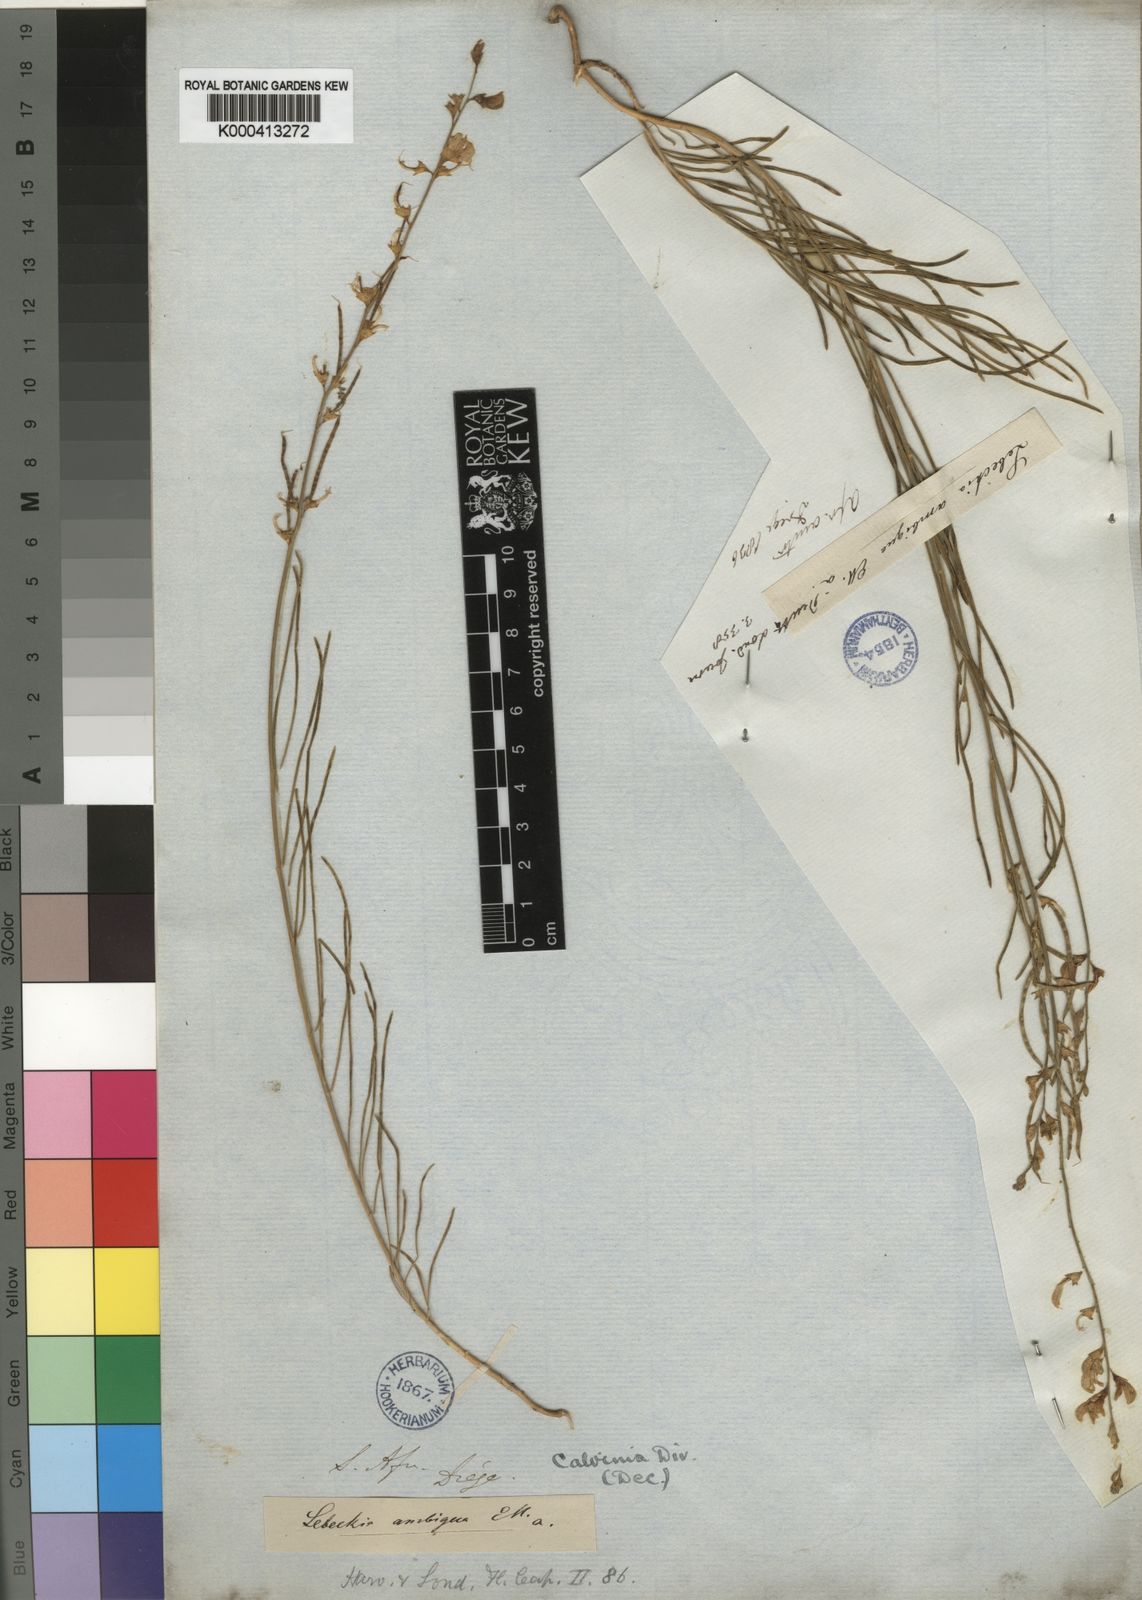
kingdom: Plantae
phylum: Tracheophyta
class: Magnoliopsida
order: Fabales
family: Fabaceae
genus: Lebeckia
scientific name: Lebeckia ambigua
